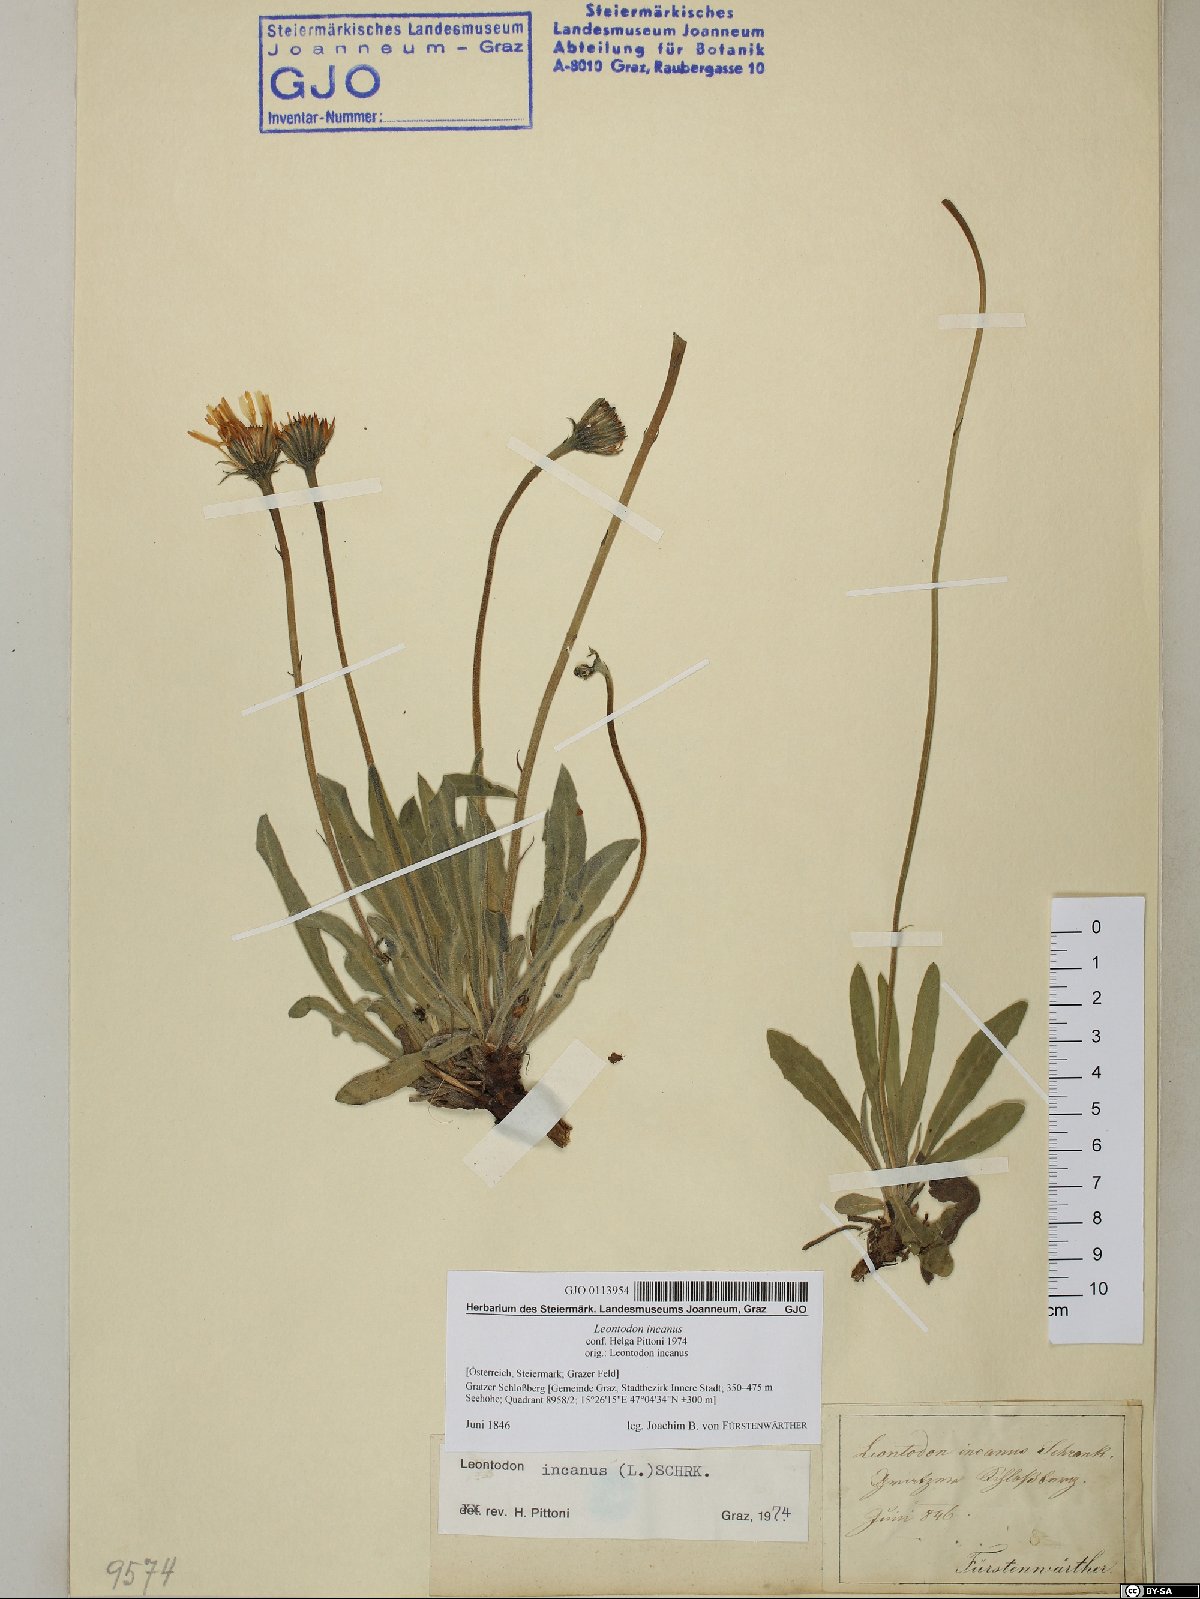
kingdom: Plantae
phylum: Tracheophyta
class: Magnoliopsida
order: Asterales
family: Asteraceae
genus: Leontodon
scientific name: Leontodon incanus
